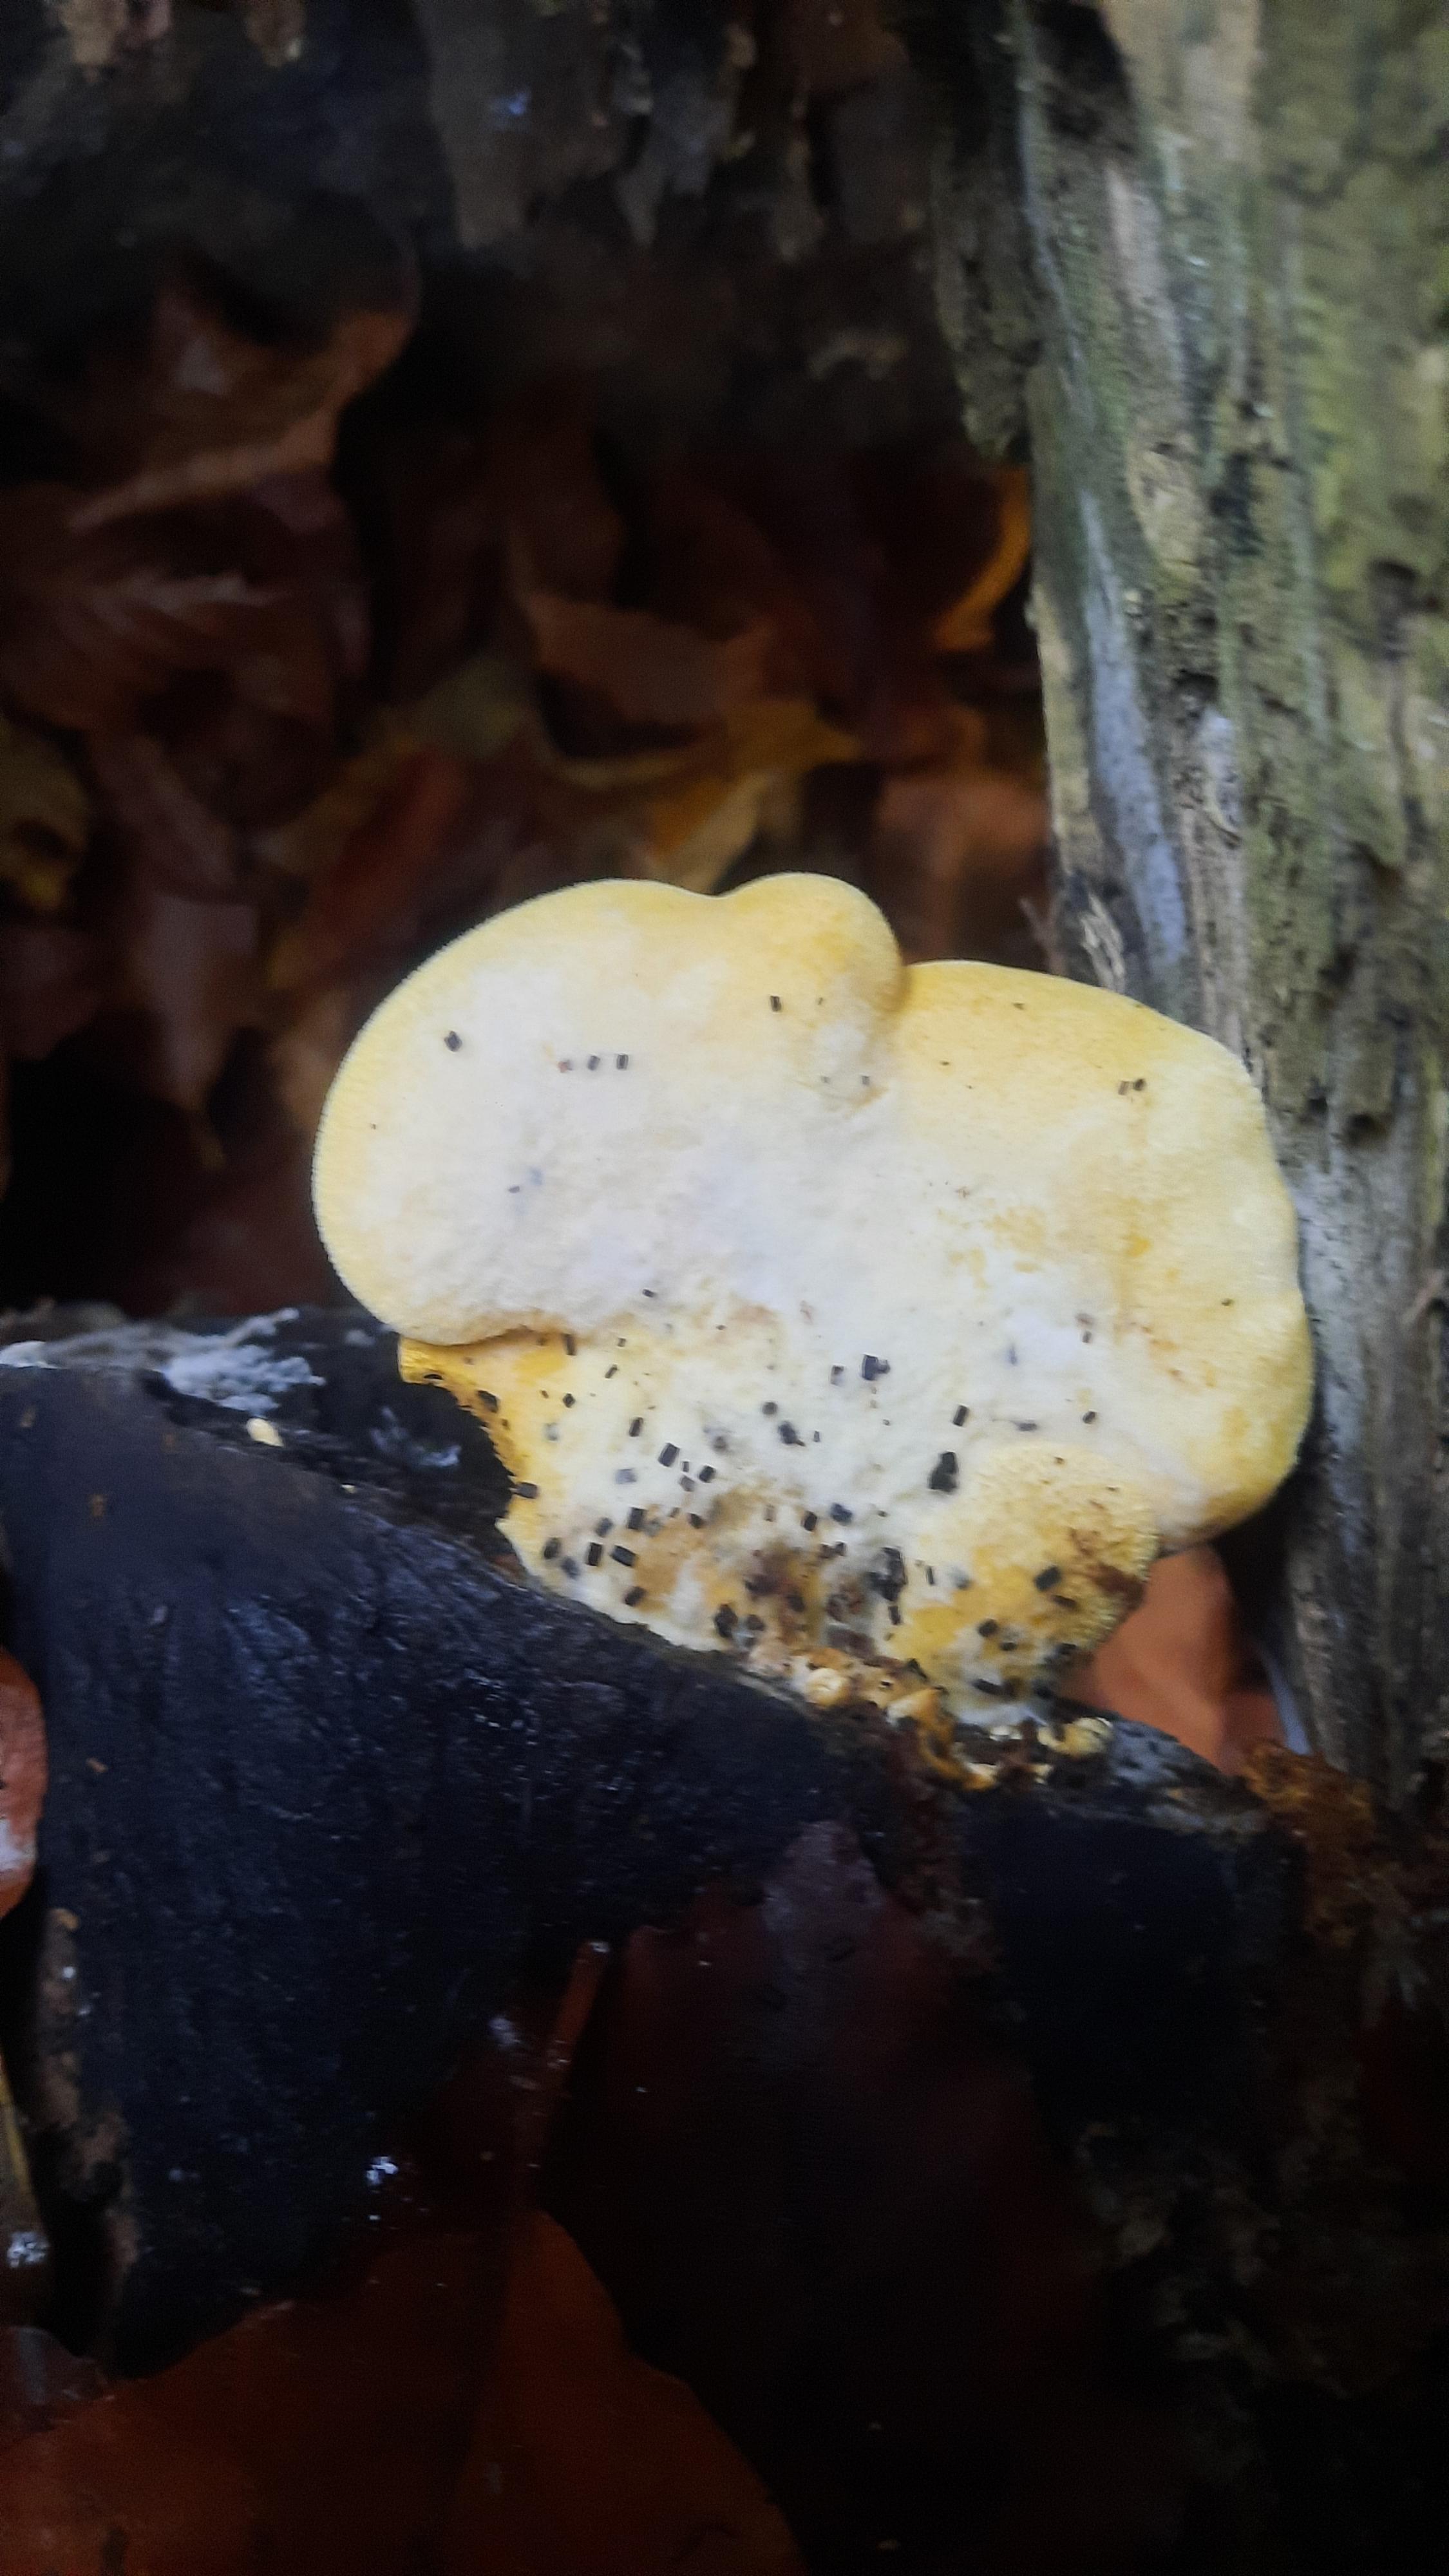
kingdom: Fungi
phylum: Basidiomycota
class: Agaricomycetes
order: Agaricales
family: Phyllotopsidaceae
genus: Phyllotopsis
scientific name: Phyllotopsis nidulans
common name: okkerblad
